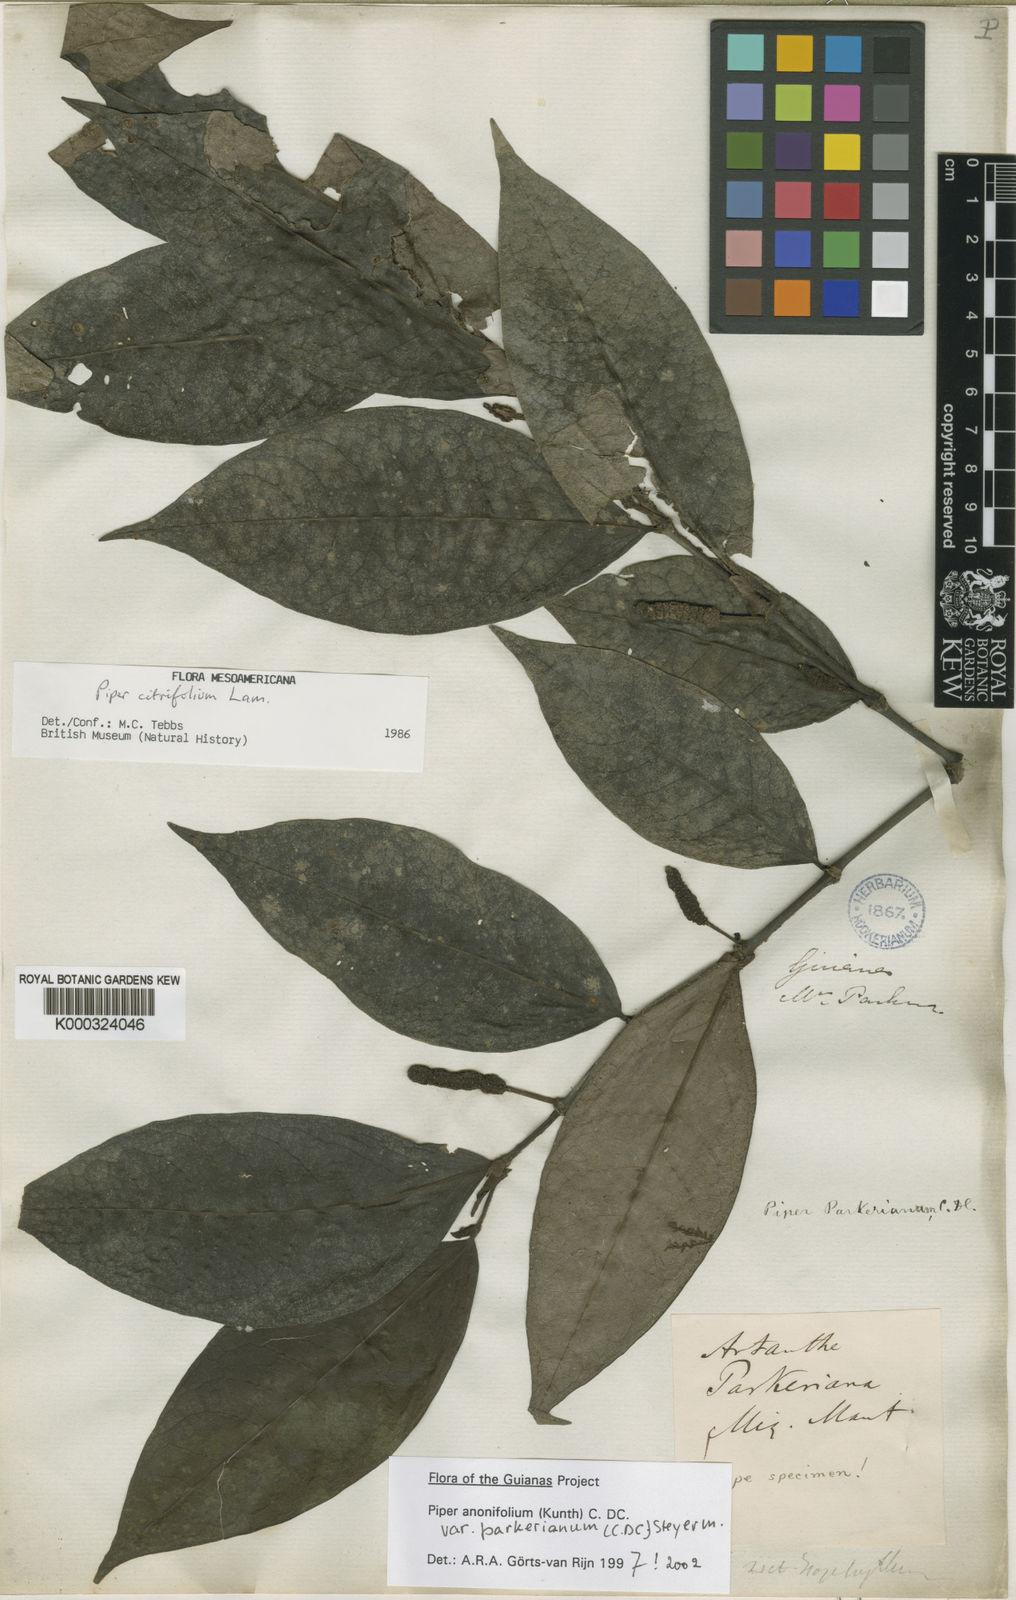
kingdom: Plantae
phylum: Tracheophyta
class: Magnoliopsida
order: Piperales
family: Piperaceae
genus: Piper
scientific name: Piper jacquemontianum
